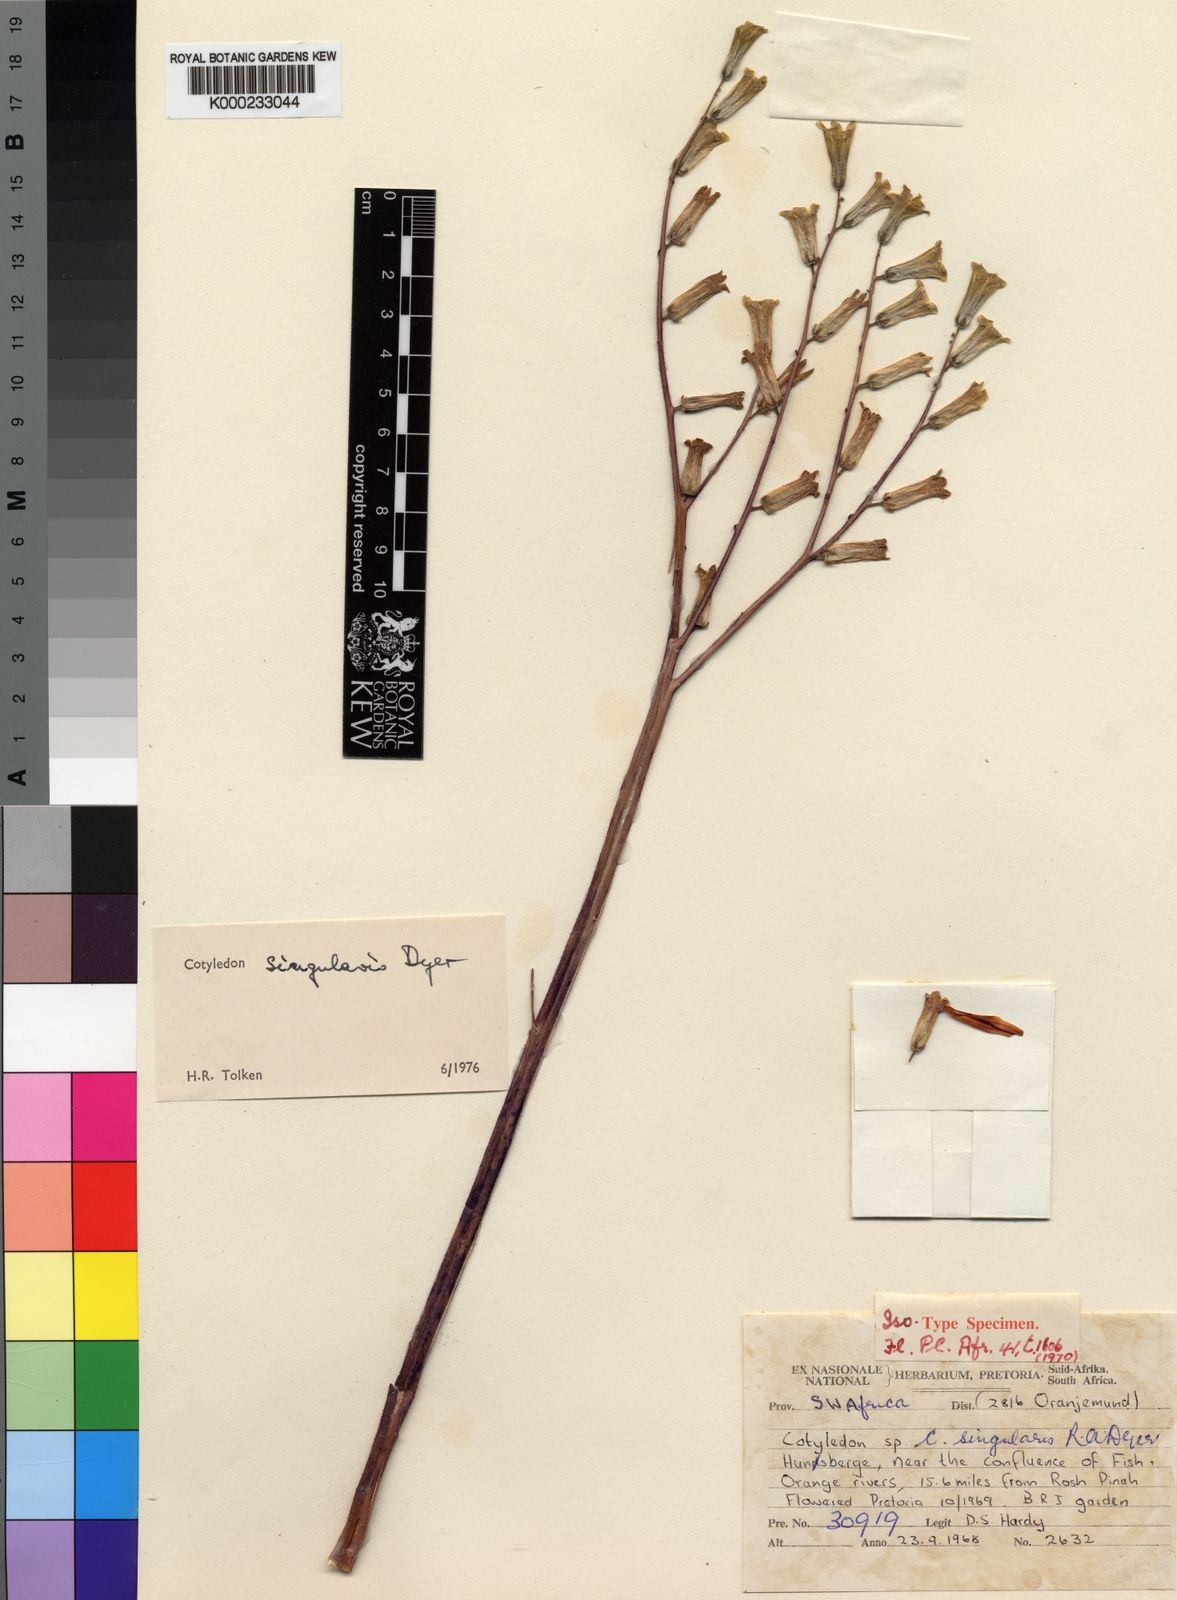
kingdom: Plantae
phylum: Tracheophyta
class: Magnoliopsida
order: Saxifragales
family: Crassulaceae
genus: Tylecodon
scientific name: Tylecodon singularis
